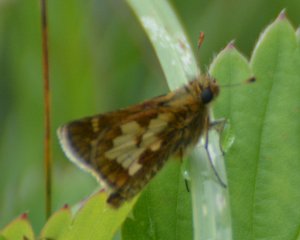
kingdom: Animalia
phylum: Arthropoda
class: Insecta
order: Lepidoptera
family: Hesperiidae
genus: Polites
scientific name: Polites coras
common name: Peck's Skipper
